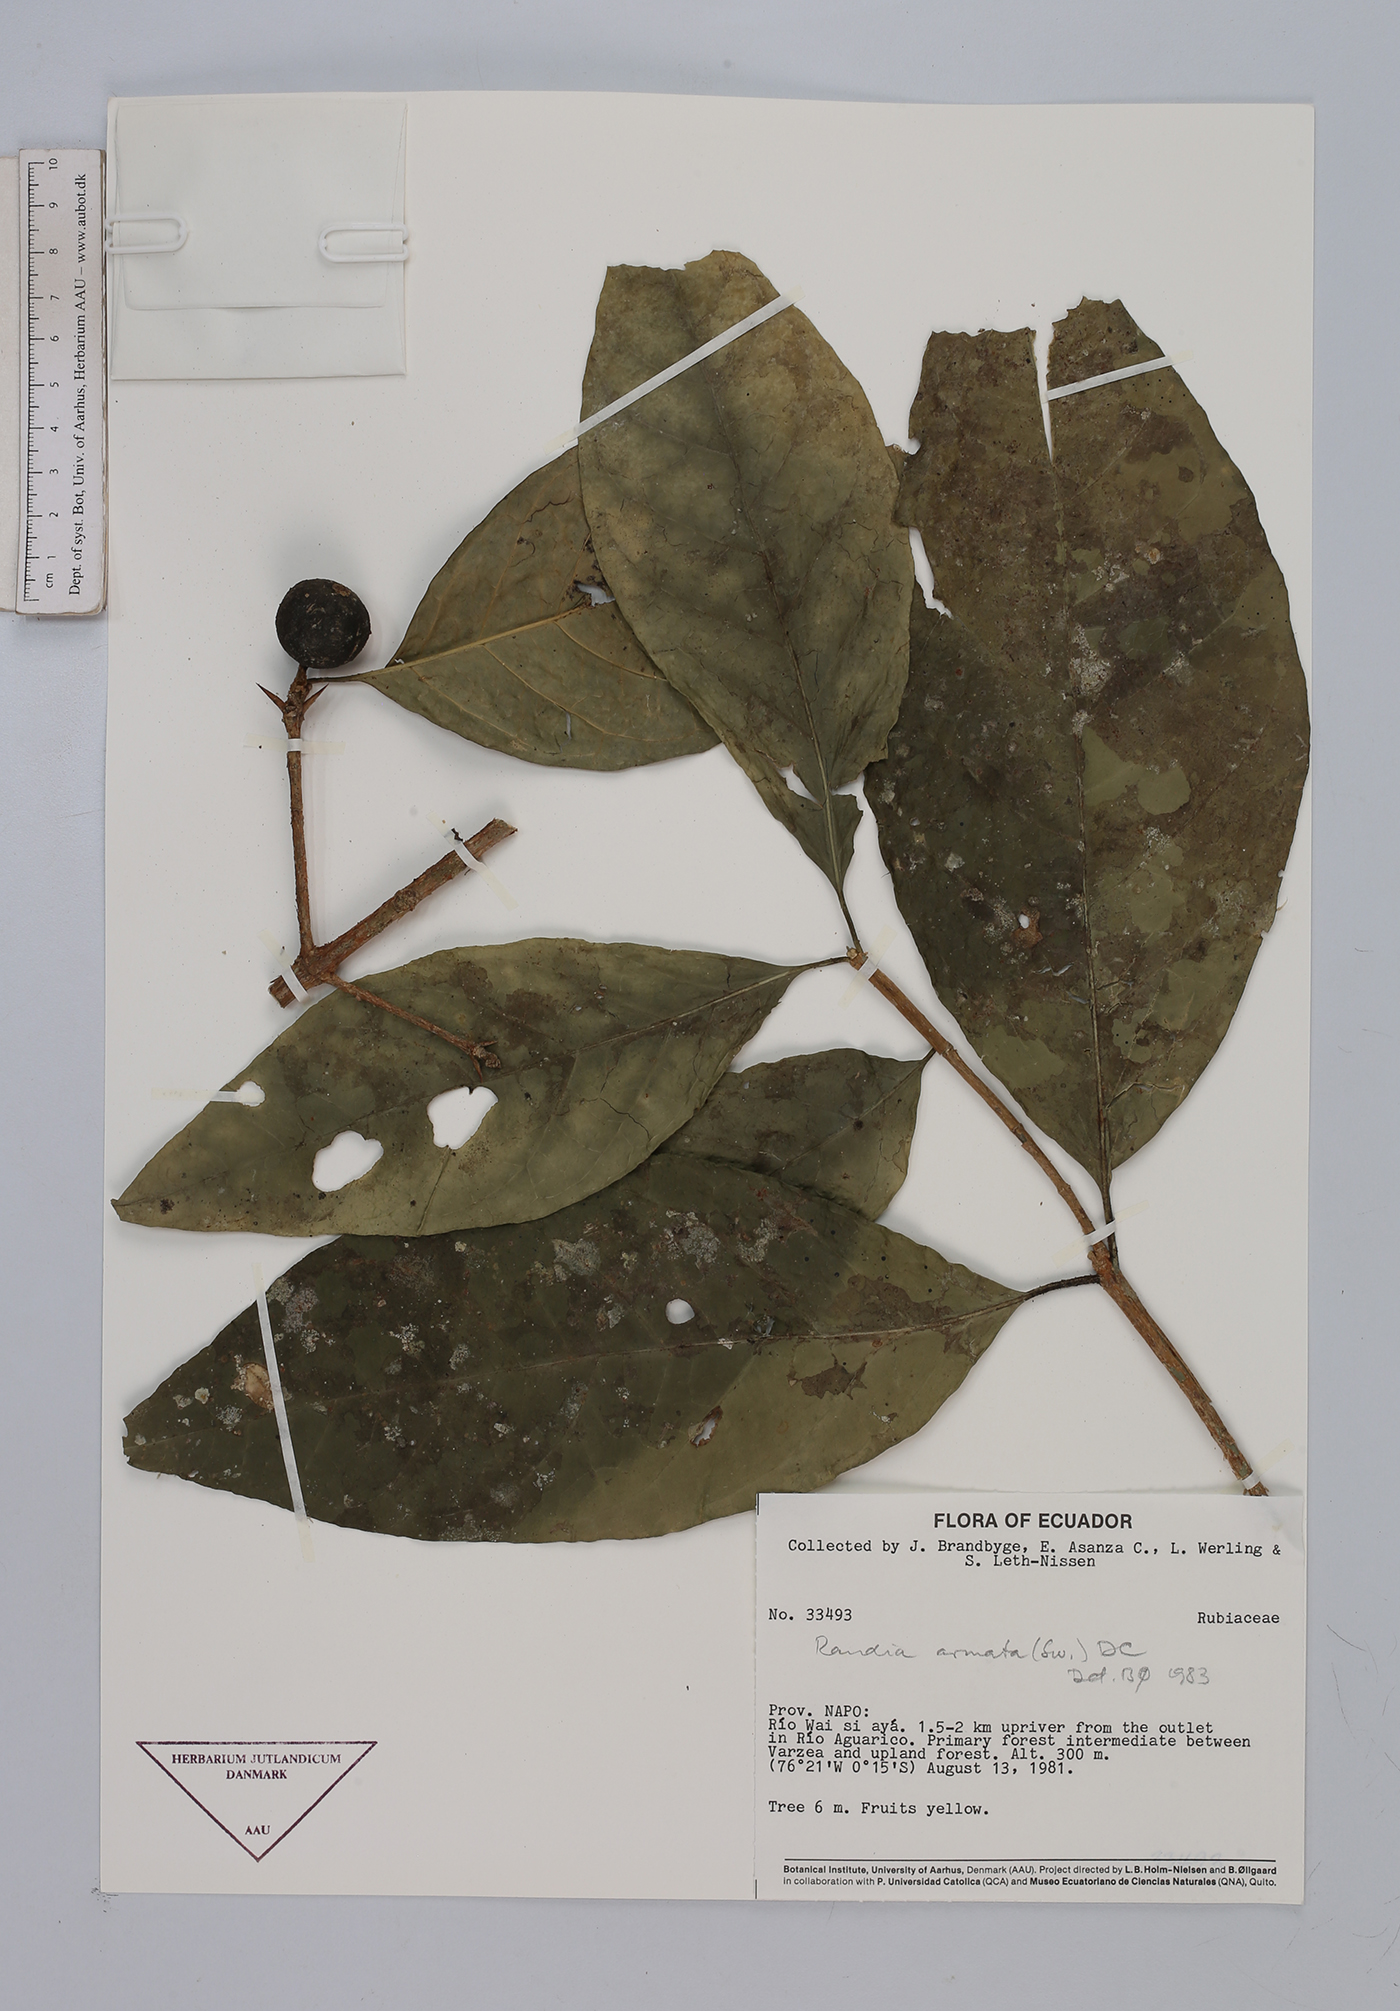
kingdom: Plantae
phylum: Tracheophyta
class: Magnoliopsida
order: Gentianales
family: Rubiaceae
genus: Randia
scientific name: Randia armata
